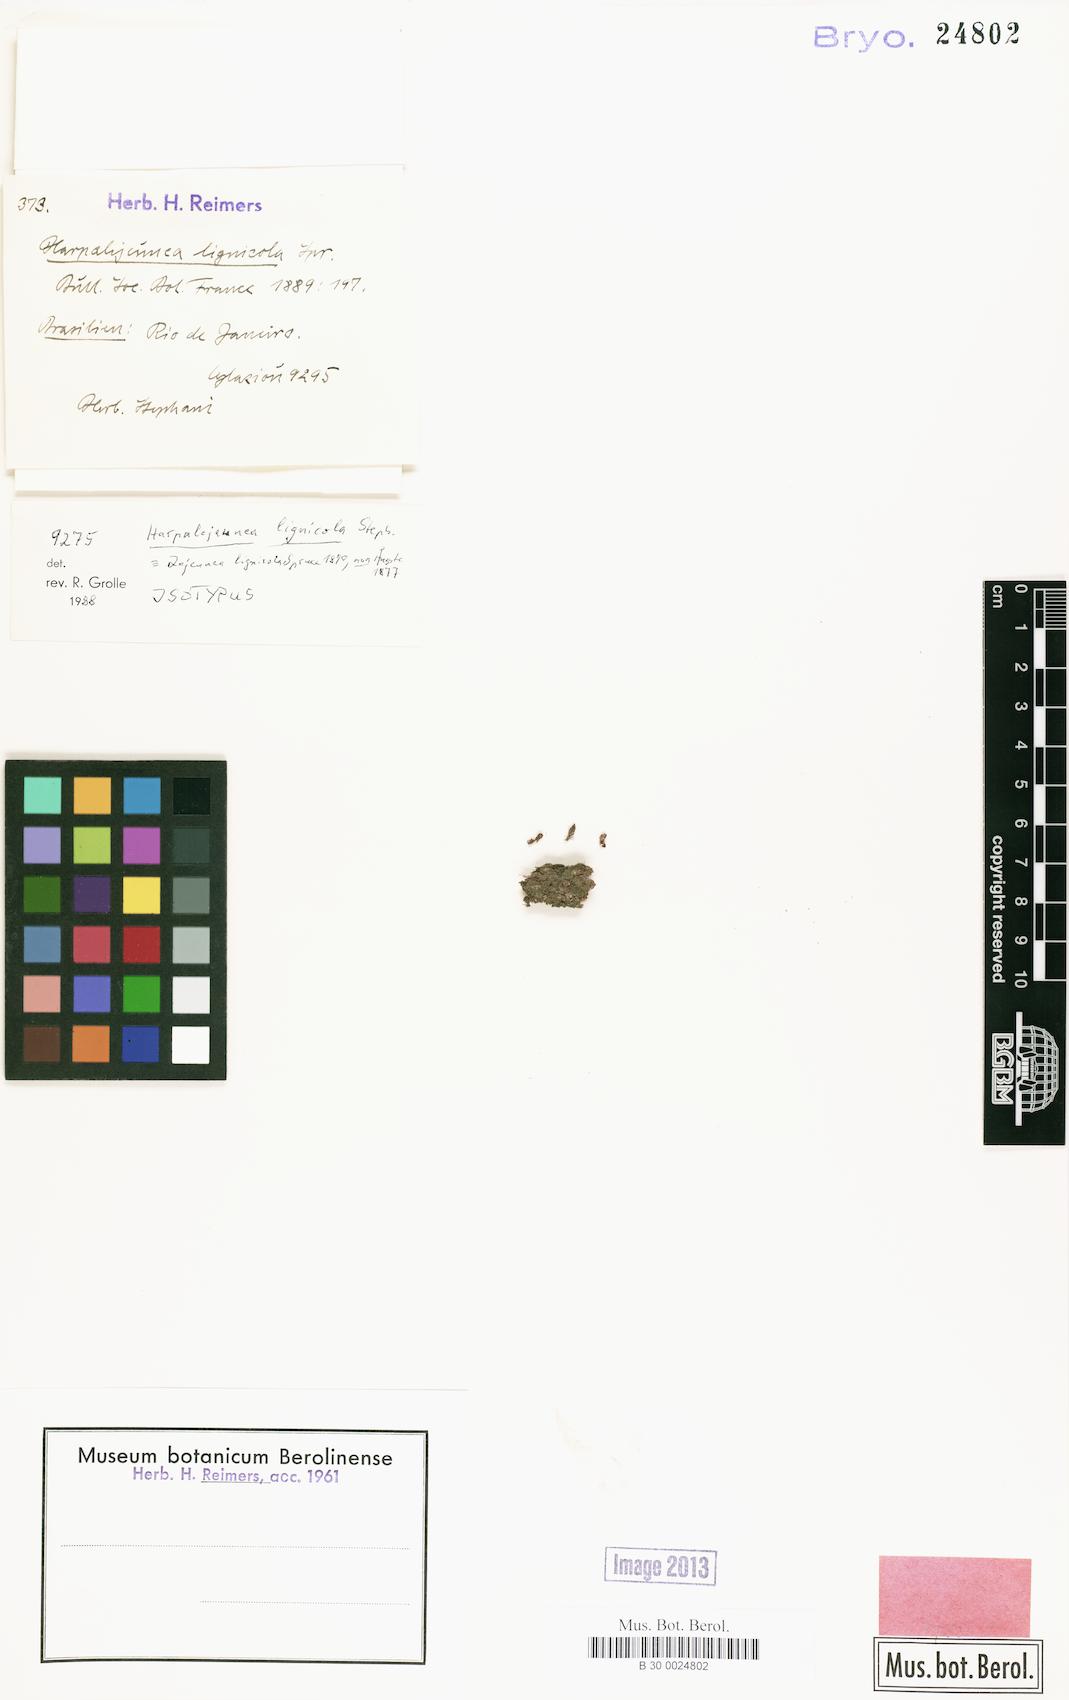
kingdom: Plantae
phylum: Marchantiophyta
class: Jungermanniopsida
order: Porellales
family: Lejeuneaceae
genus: Lejeunea
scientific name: Lejeunea grossitexta
